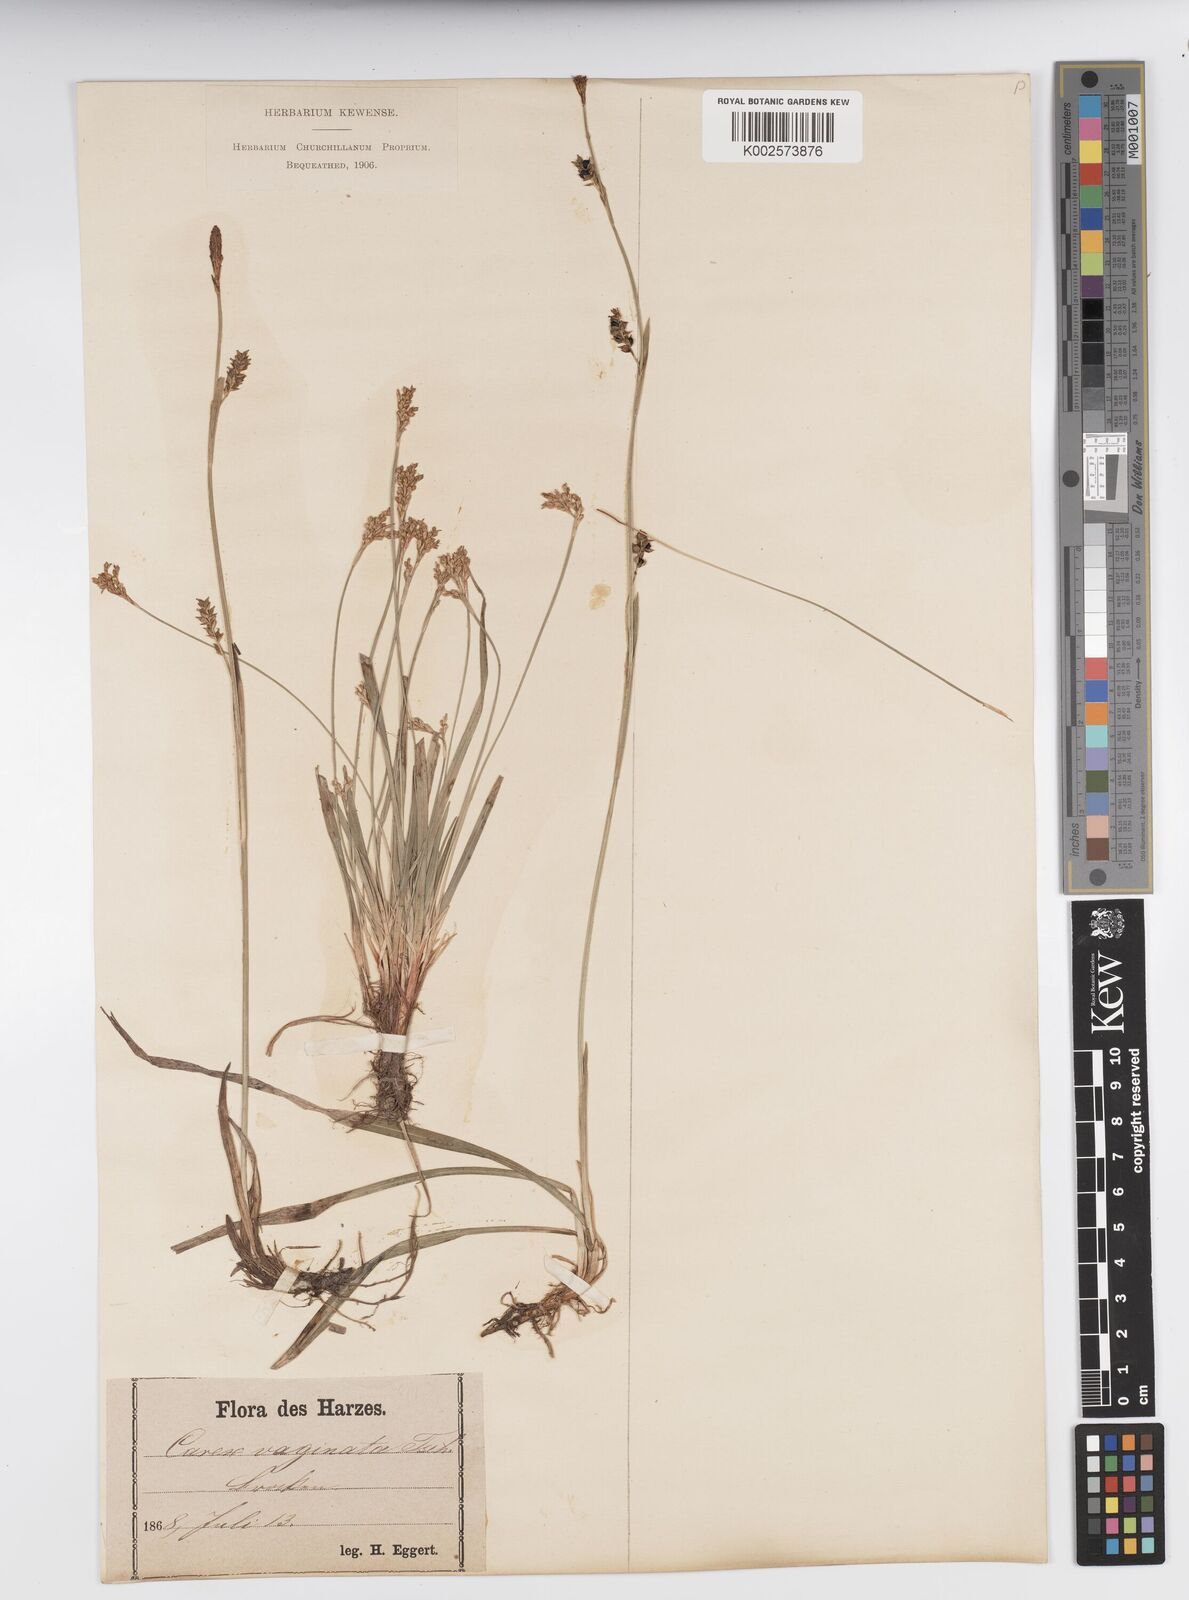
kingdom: Plantae
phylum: Tracheophyta
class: Liliopsida
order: Poales
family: Cyperaceae
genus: Carex
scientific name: Carex vaginata
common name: Sheathed sedge
